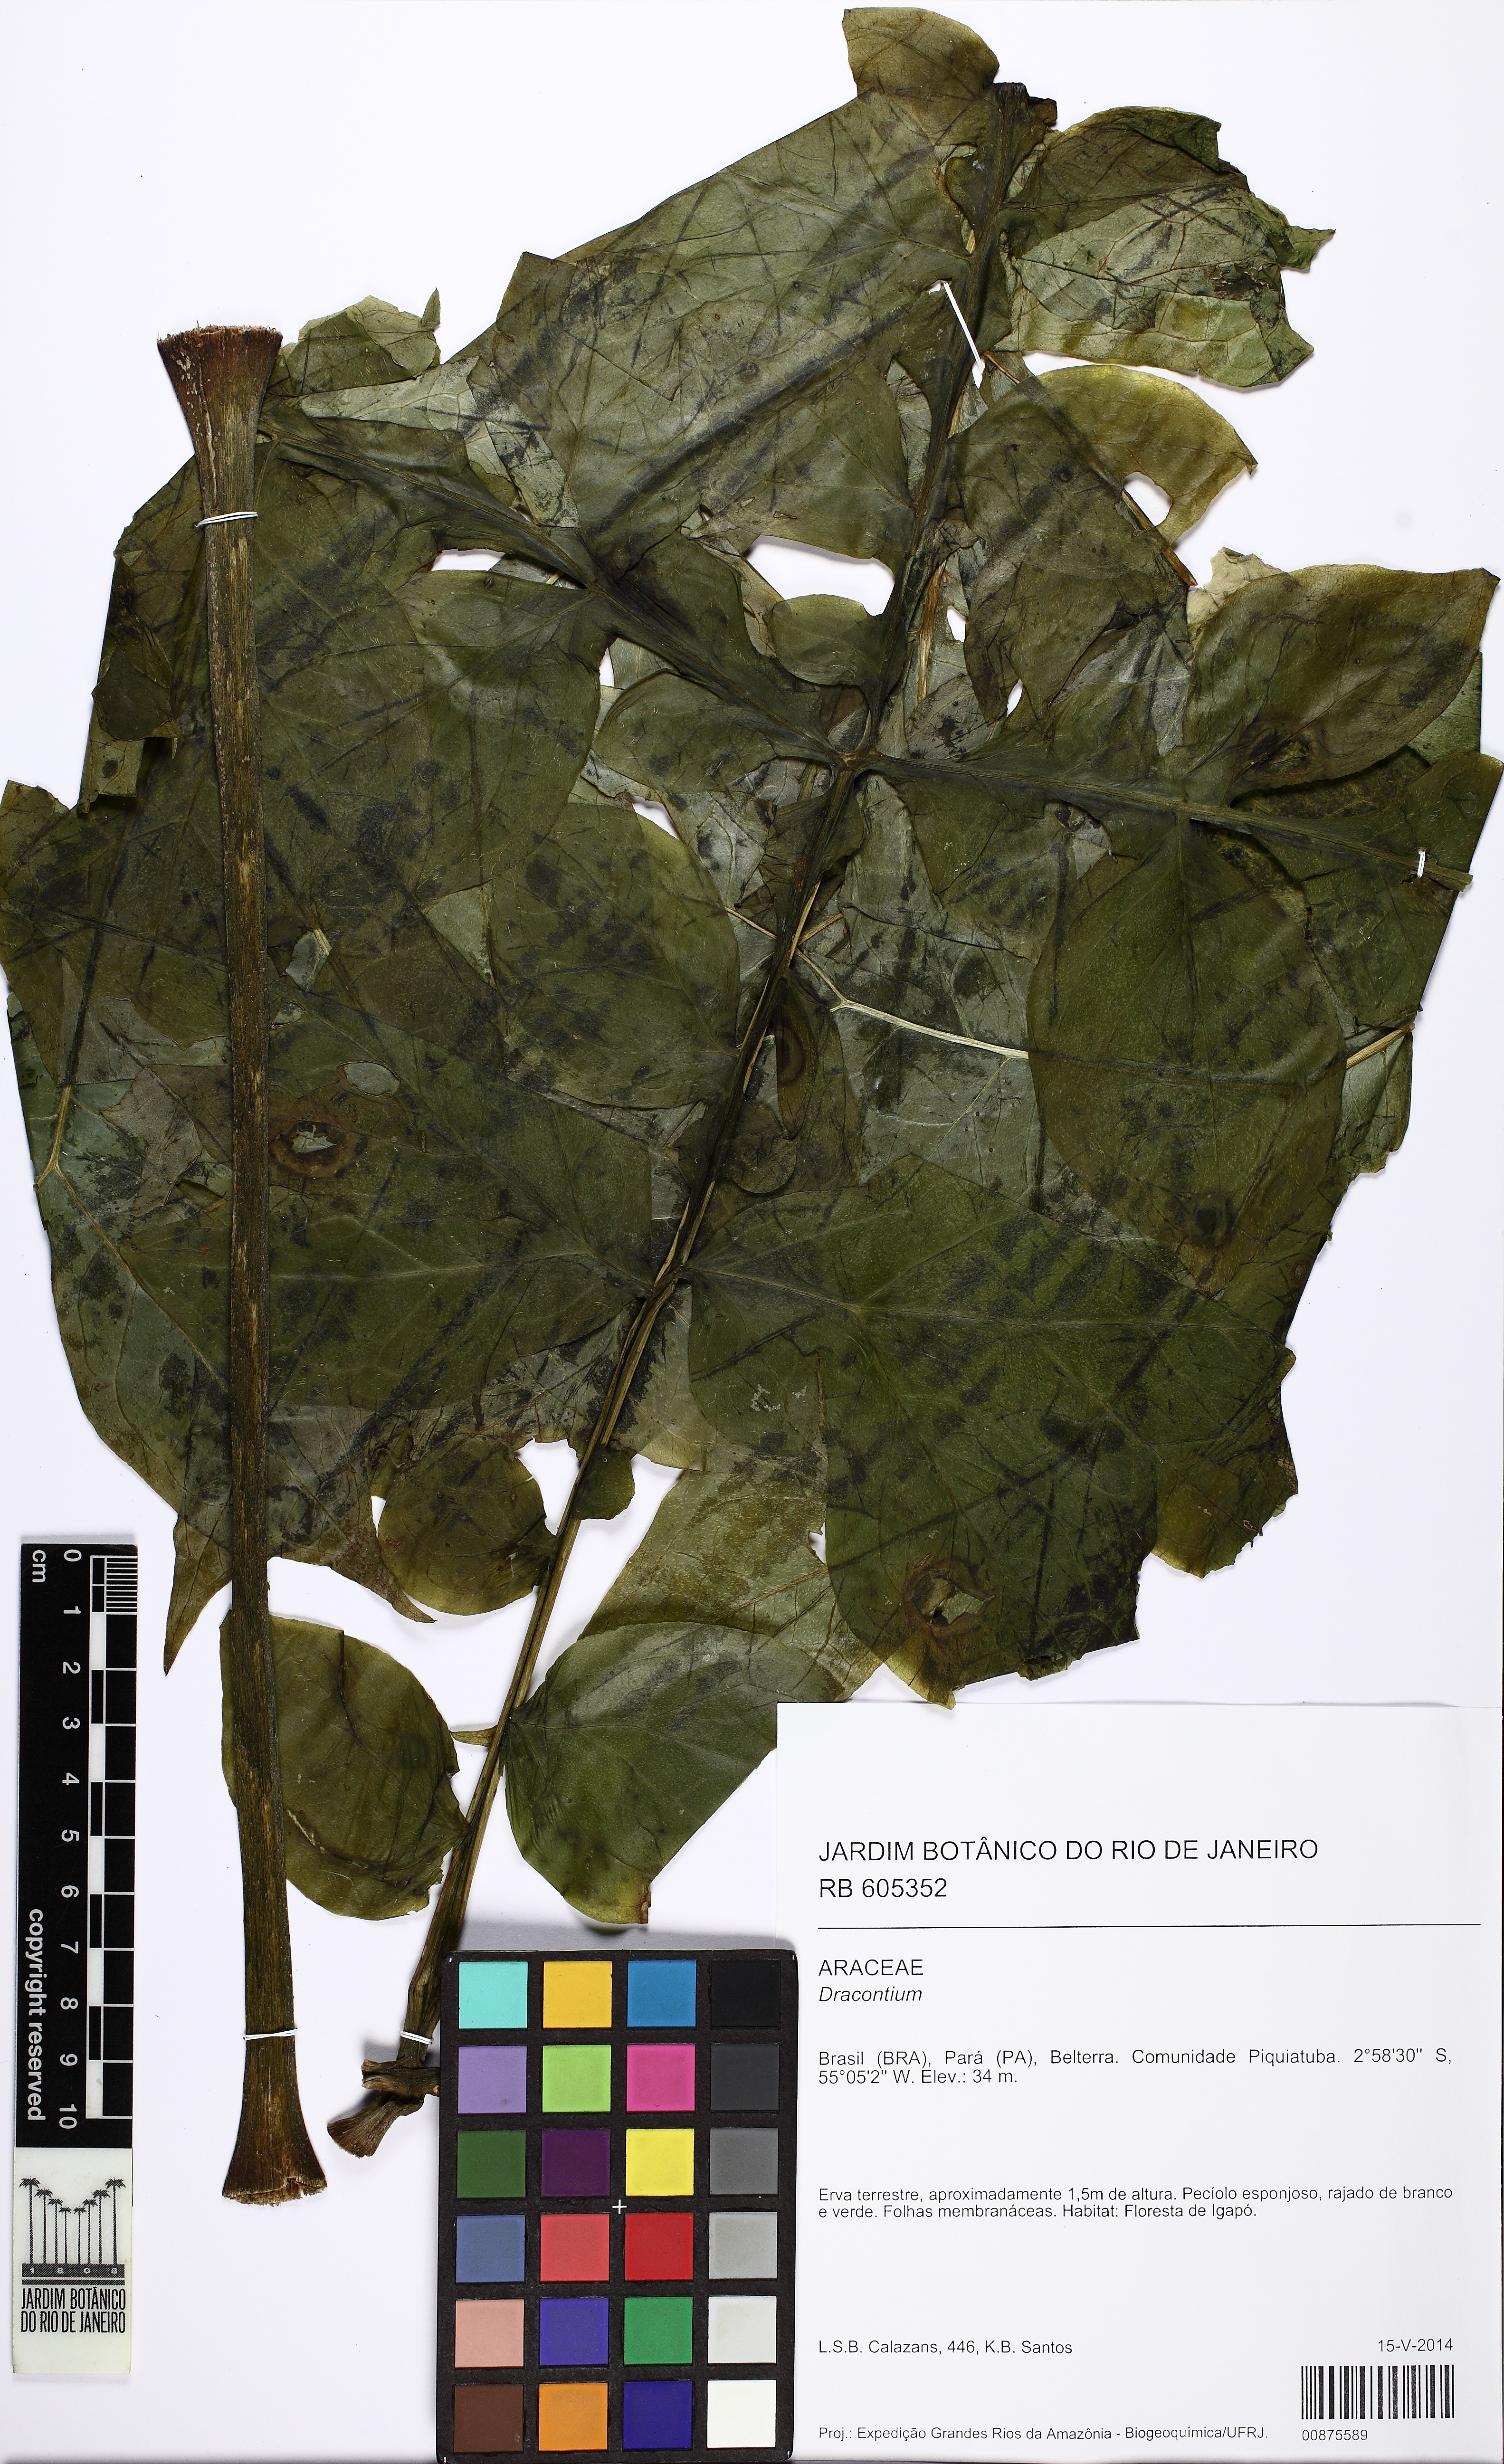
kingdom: Plantae
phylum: Tracheophyta
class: Liliopsida
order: Alismatales
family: Araceae
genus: Dracontium
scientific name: Dracontium
